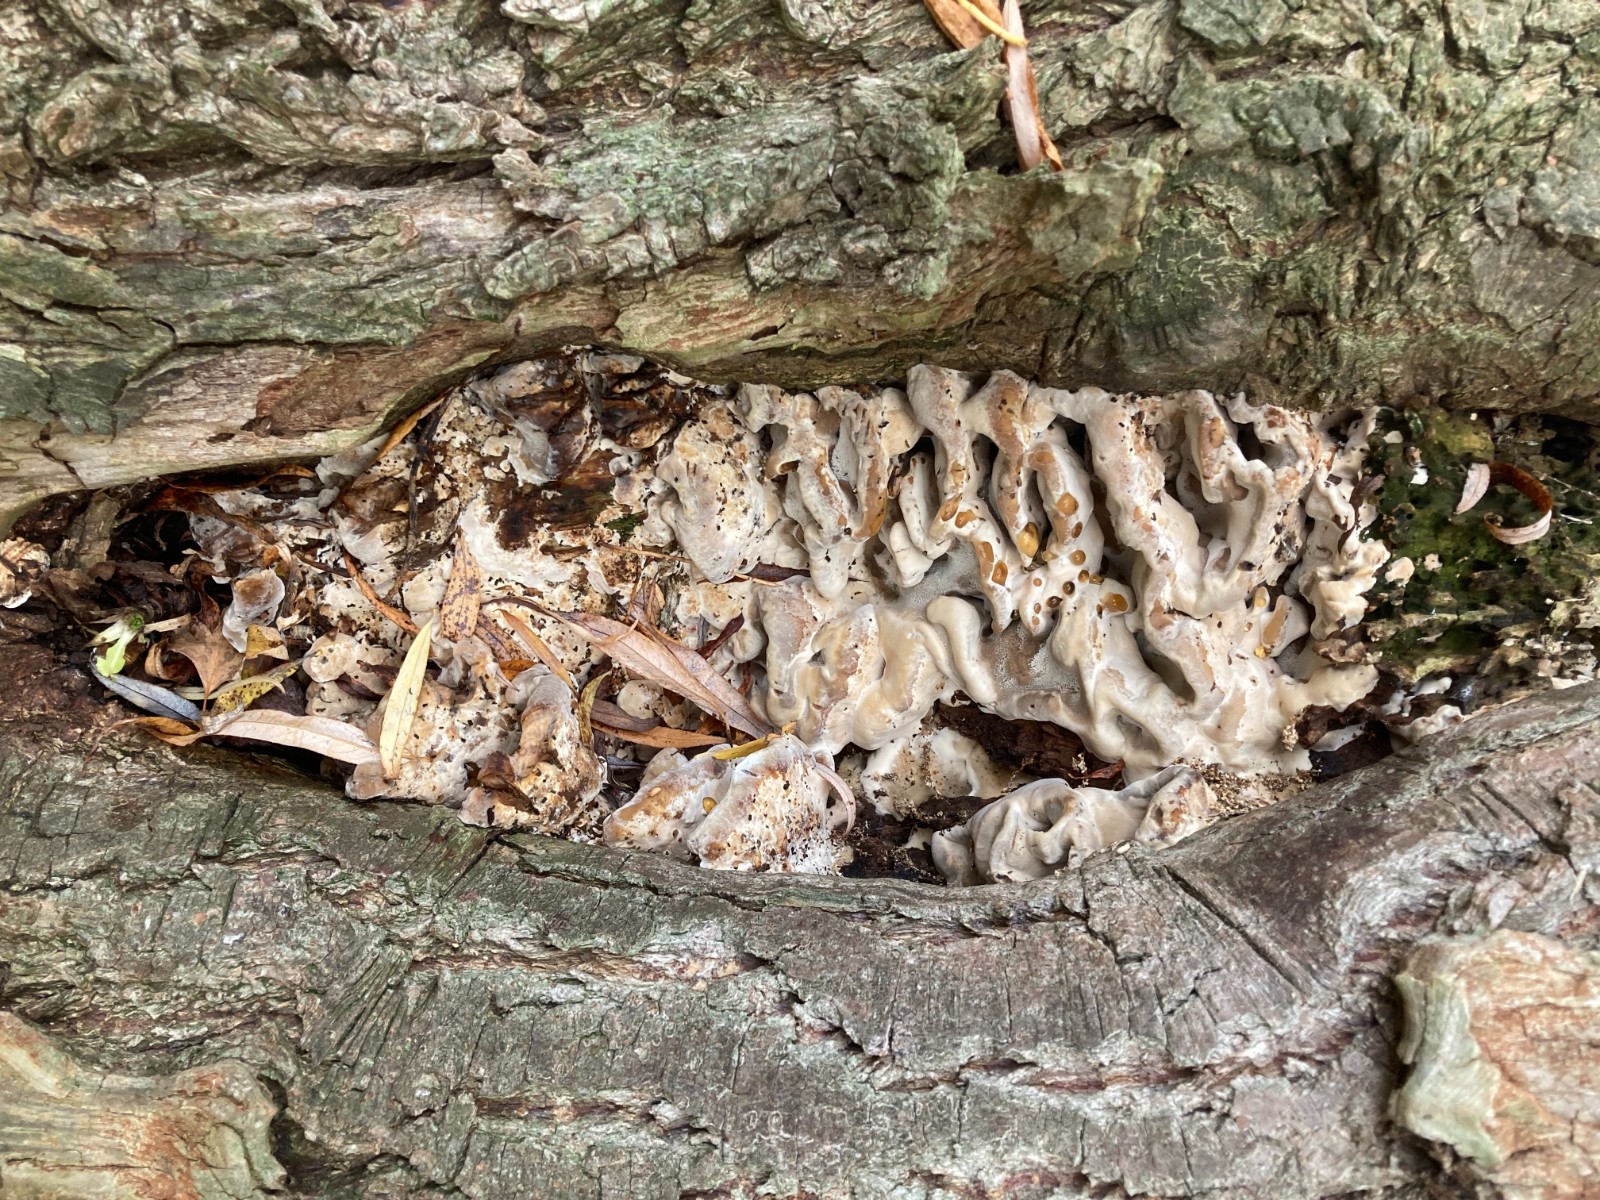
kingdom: Fungi
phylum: Basidiomycota
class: Agaricomycetes
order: Polyporales
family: Phanerochaetaceae
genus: Bjerkandera
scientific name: Bjerkandera fumosa
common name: grågul sodporesvamp
